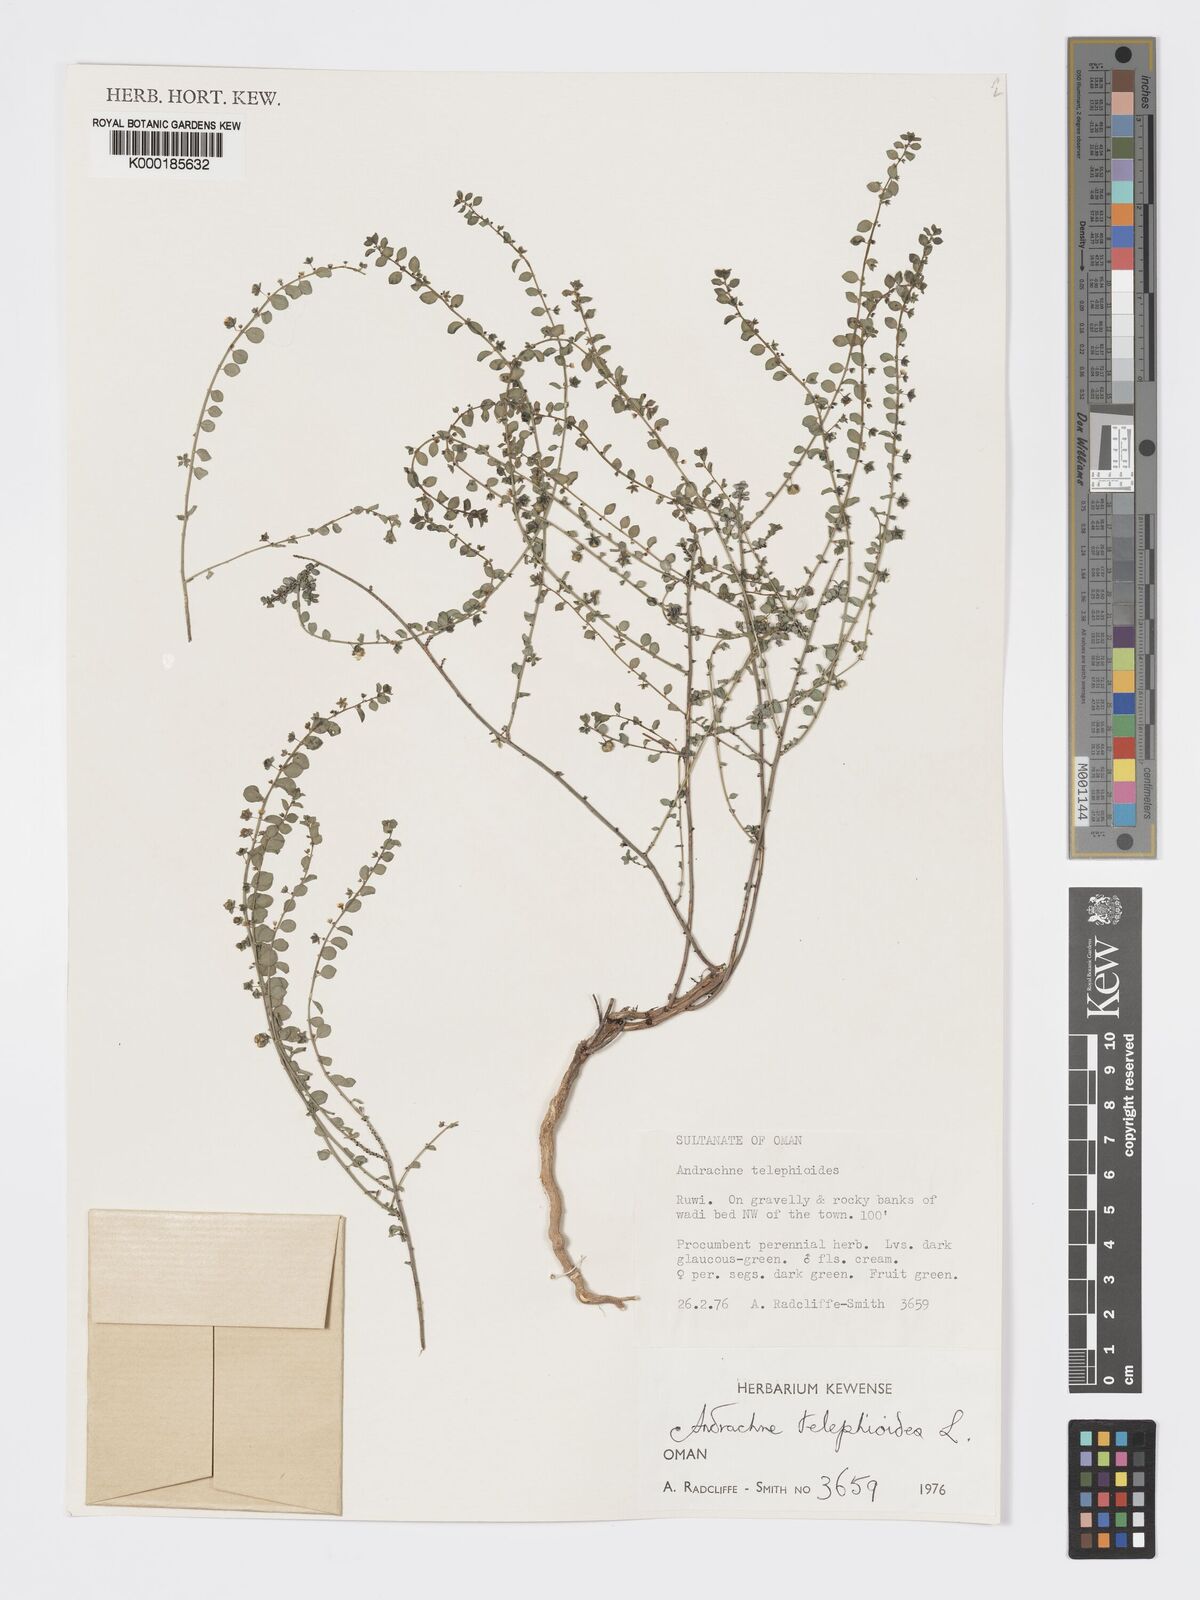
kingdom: Plantae
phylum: Tracheophyta
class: Magnoliopsida
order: Malpighiales
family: Phyllanthaceae
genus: Andrachne
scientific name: Andrachne telephioides
